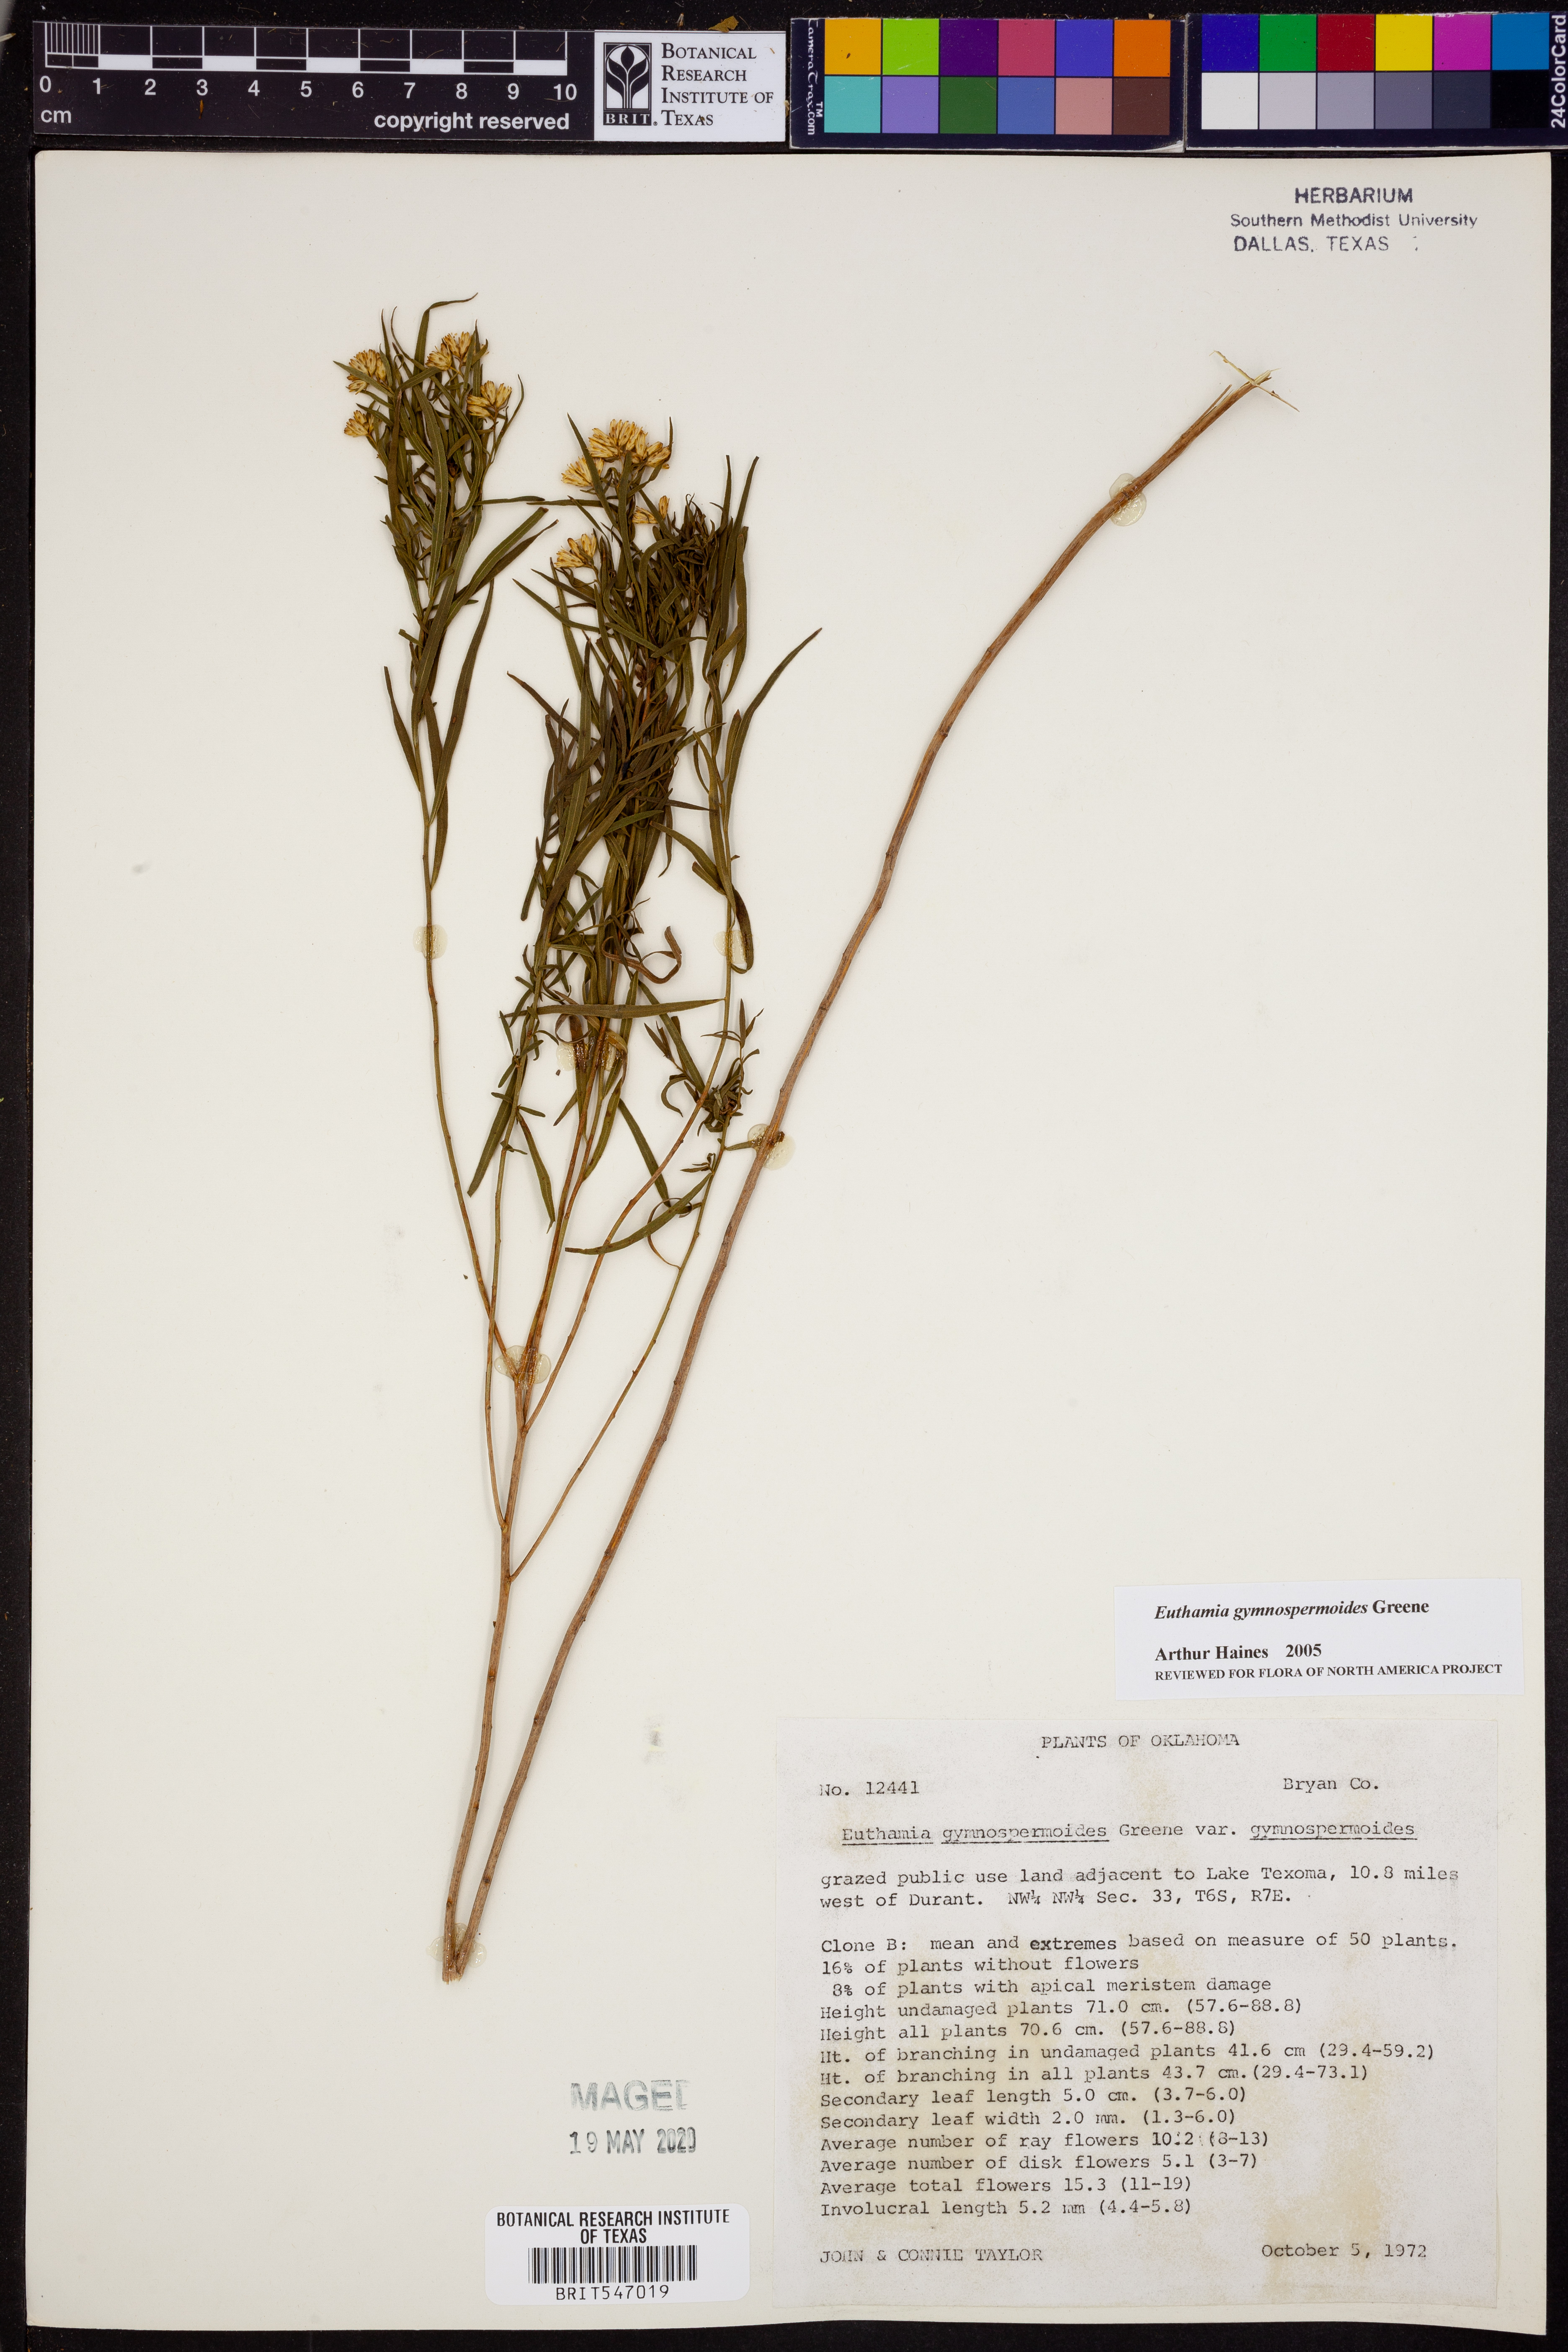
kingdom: Plantae
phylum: Tracheophyta
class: Magnoliopsida
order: Asterales
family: Asteraceae
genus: Euthamia
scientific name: Euthamia gymnospermoides
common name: Great plains goldentop
